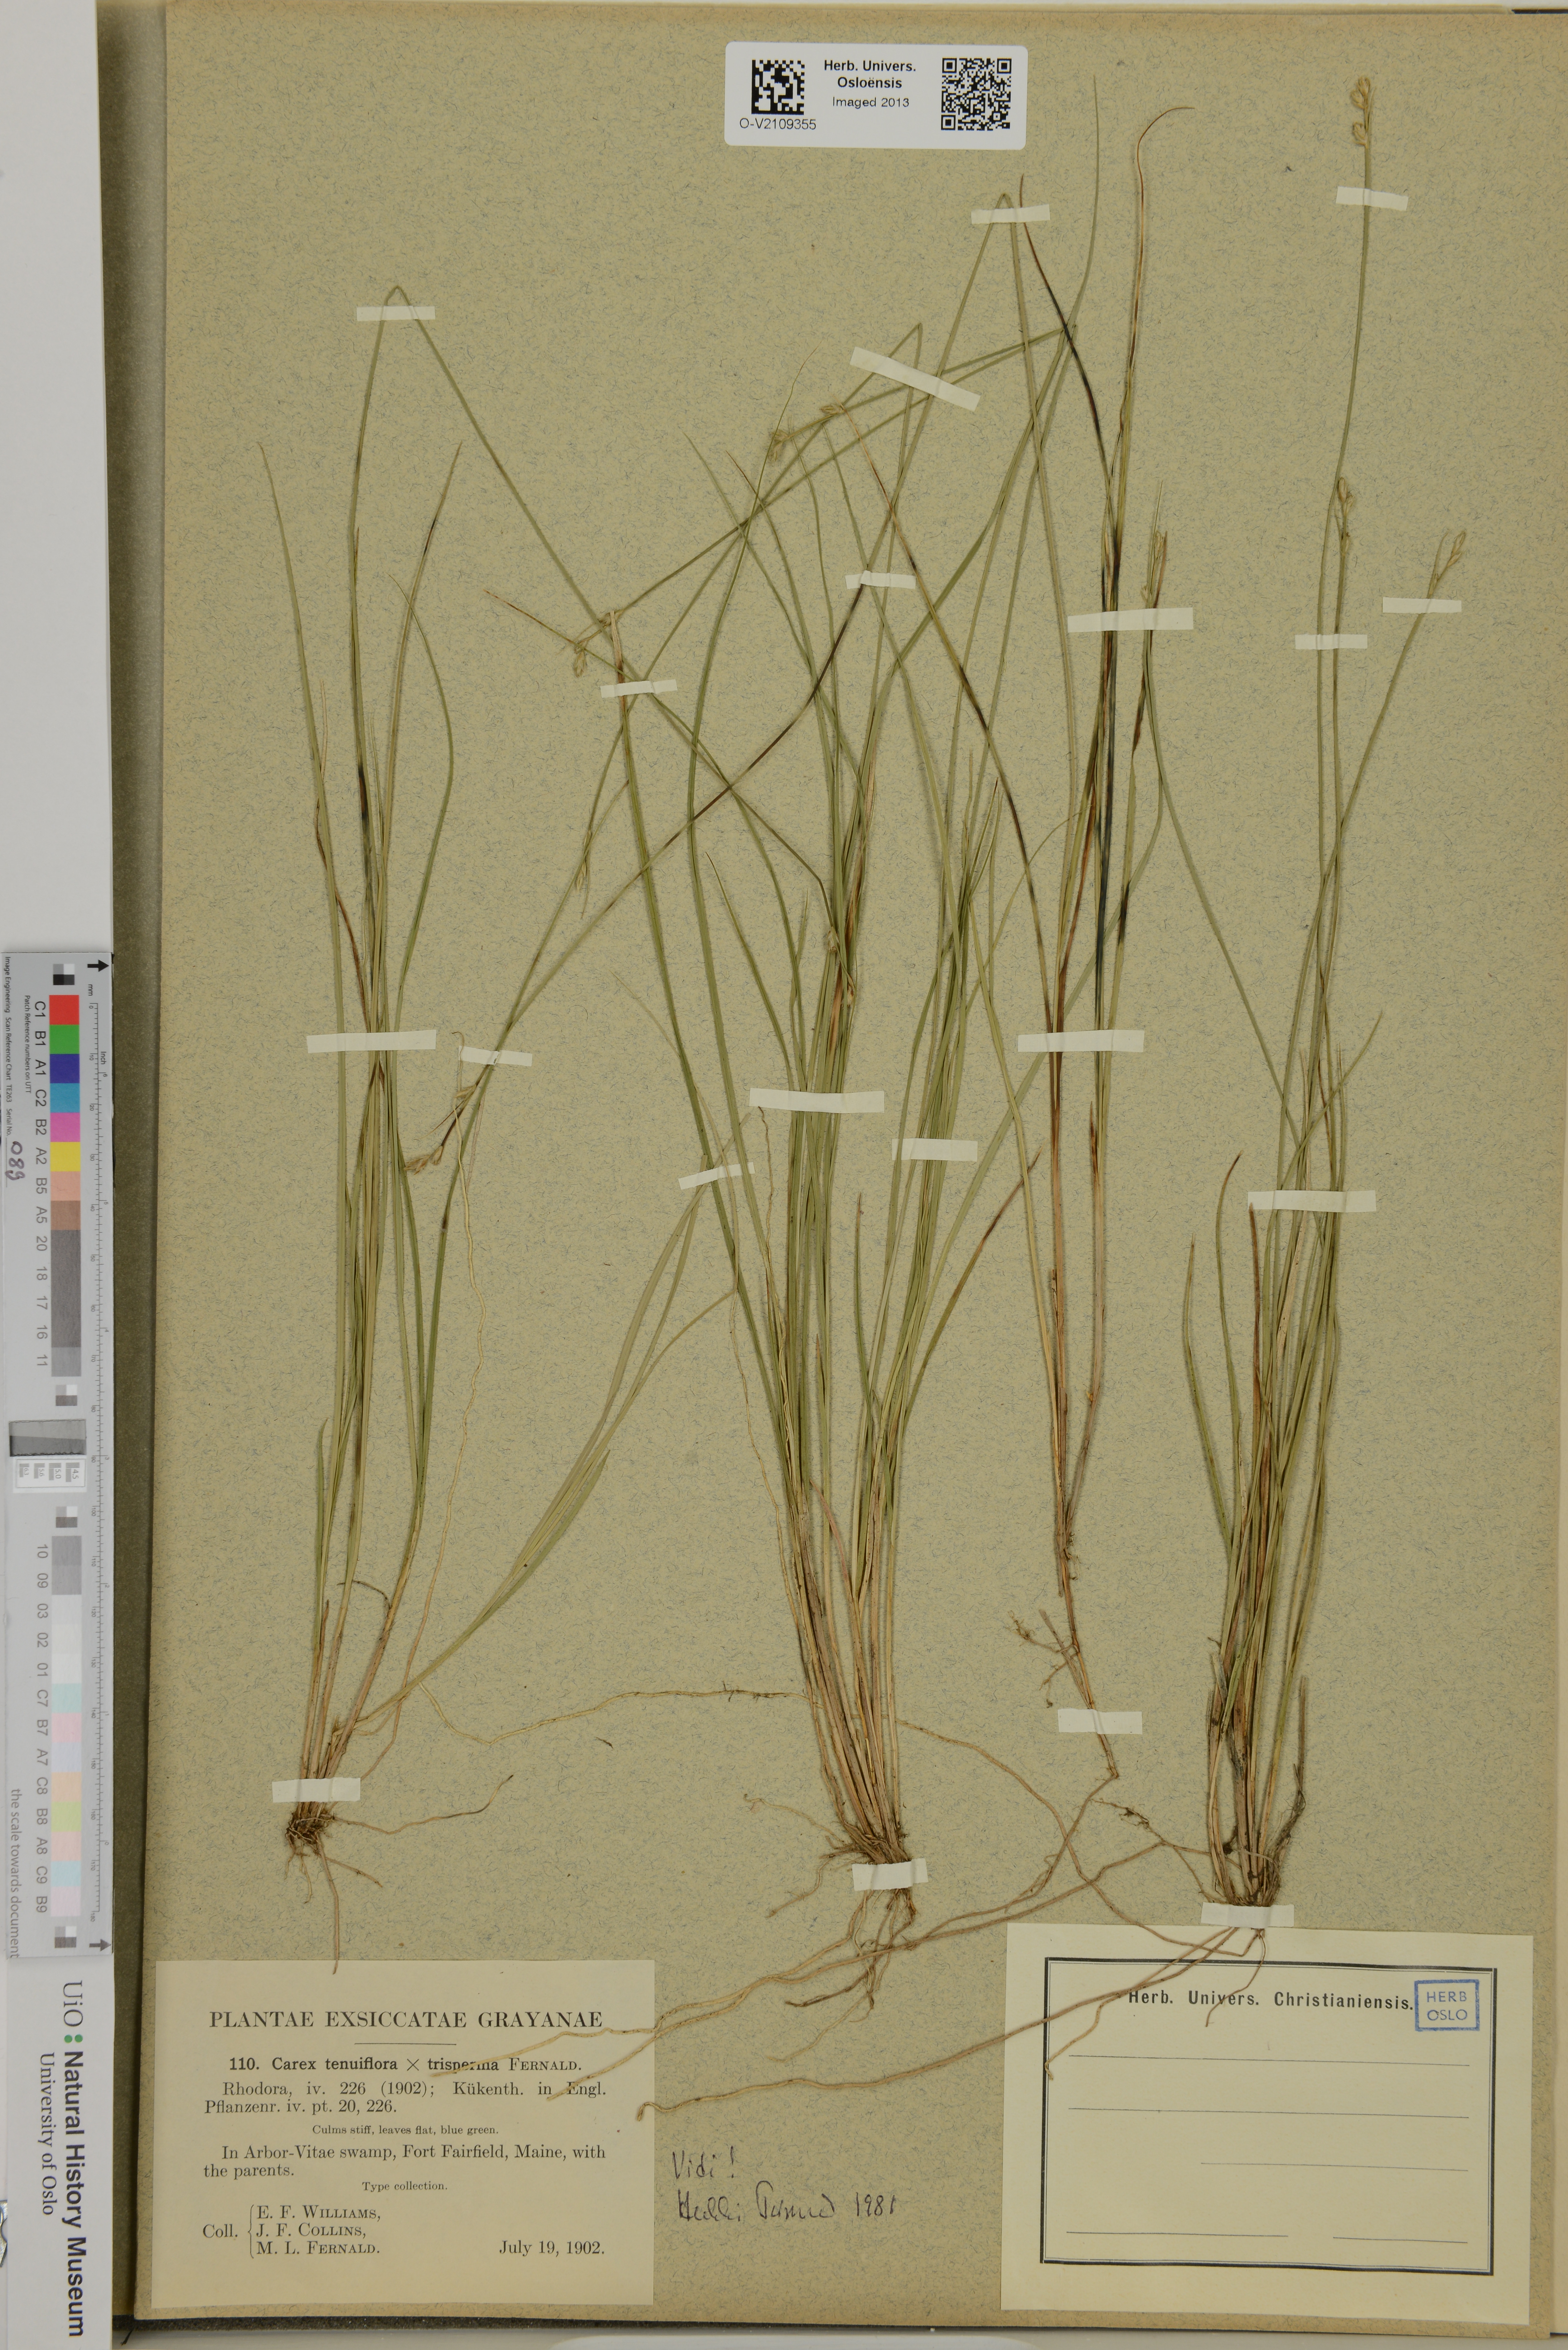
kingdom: Plantae
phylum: Tracheophyta
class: Liliopsida
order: Poales
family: Cyperaceae
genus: Carex
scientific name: Carex
